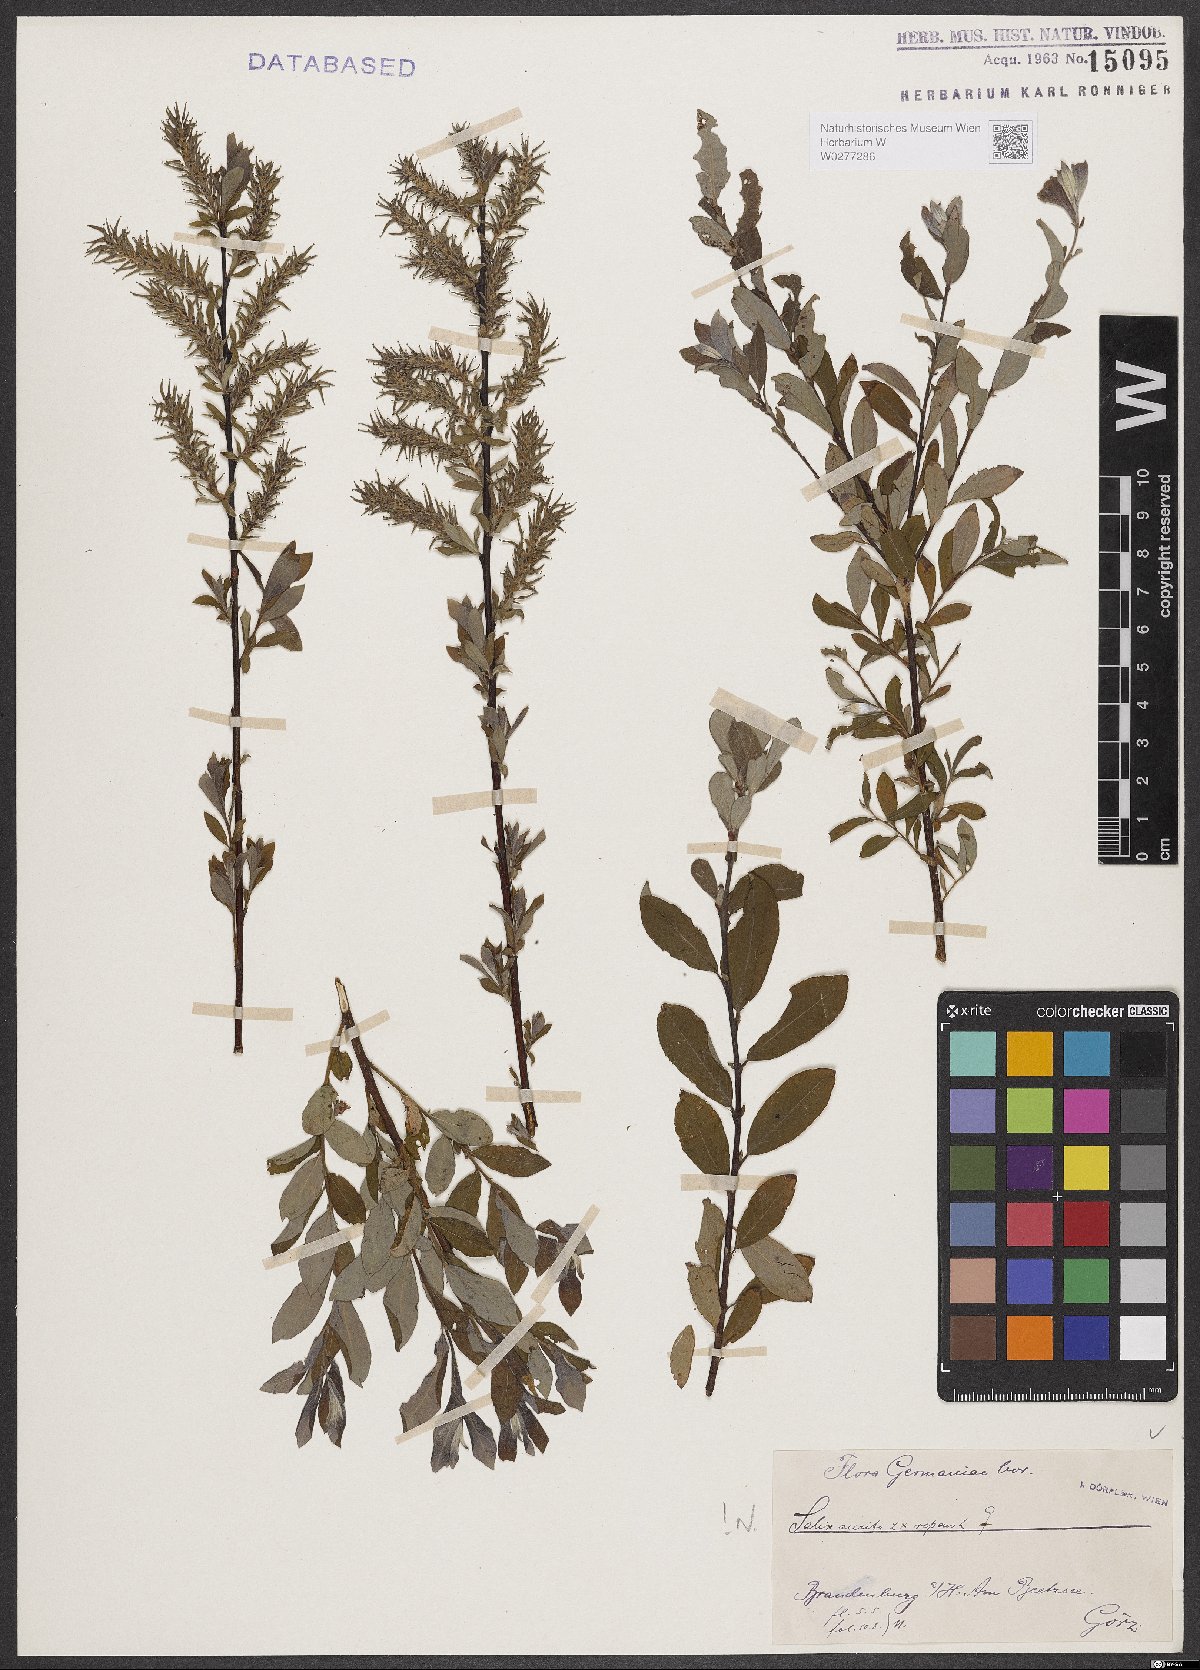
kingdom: Plantae
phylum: Tracheophyta
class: Magnoliopsida
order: Malpighiales
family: Salicaceae
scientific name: Salicaceae
